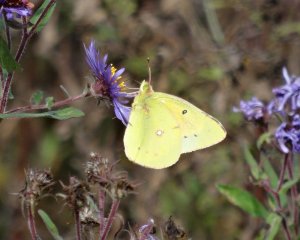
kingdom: Animalia
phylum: Arthropoda
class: Insecta
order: Lepidoptera
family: Pieridae
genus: Colias
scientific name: Colias philodice
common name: Clouded Sulphur
